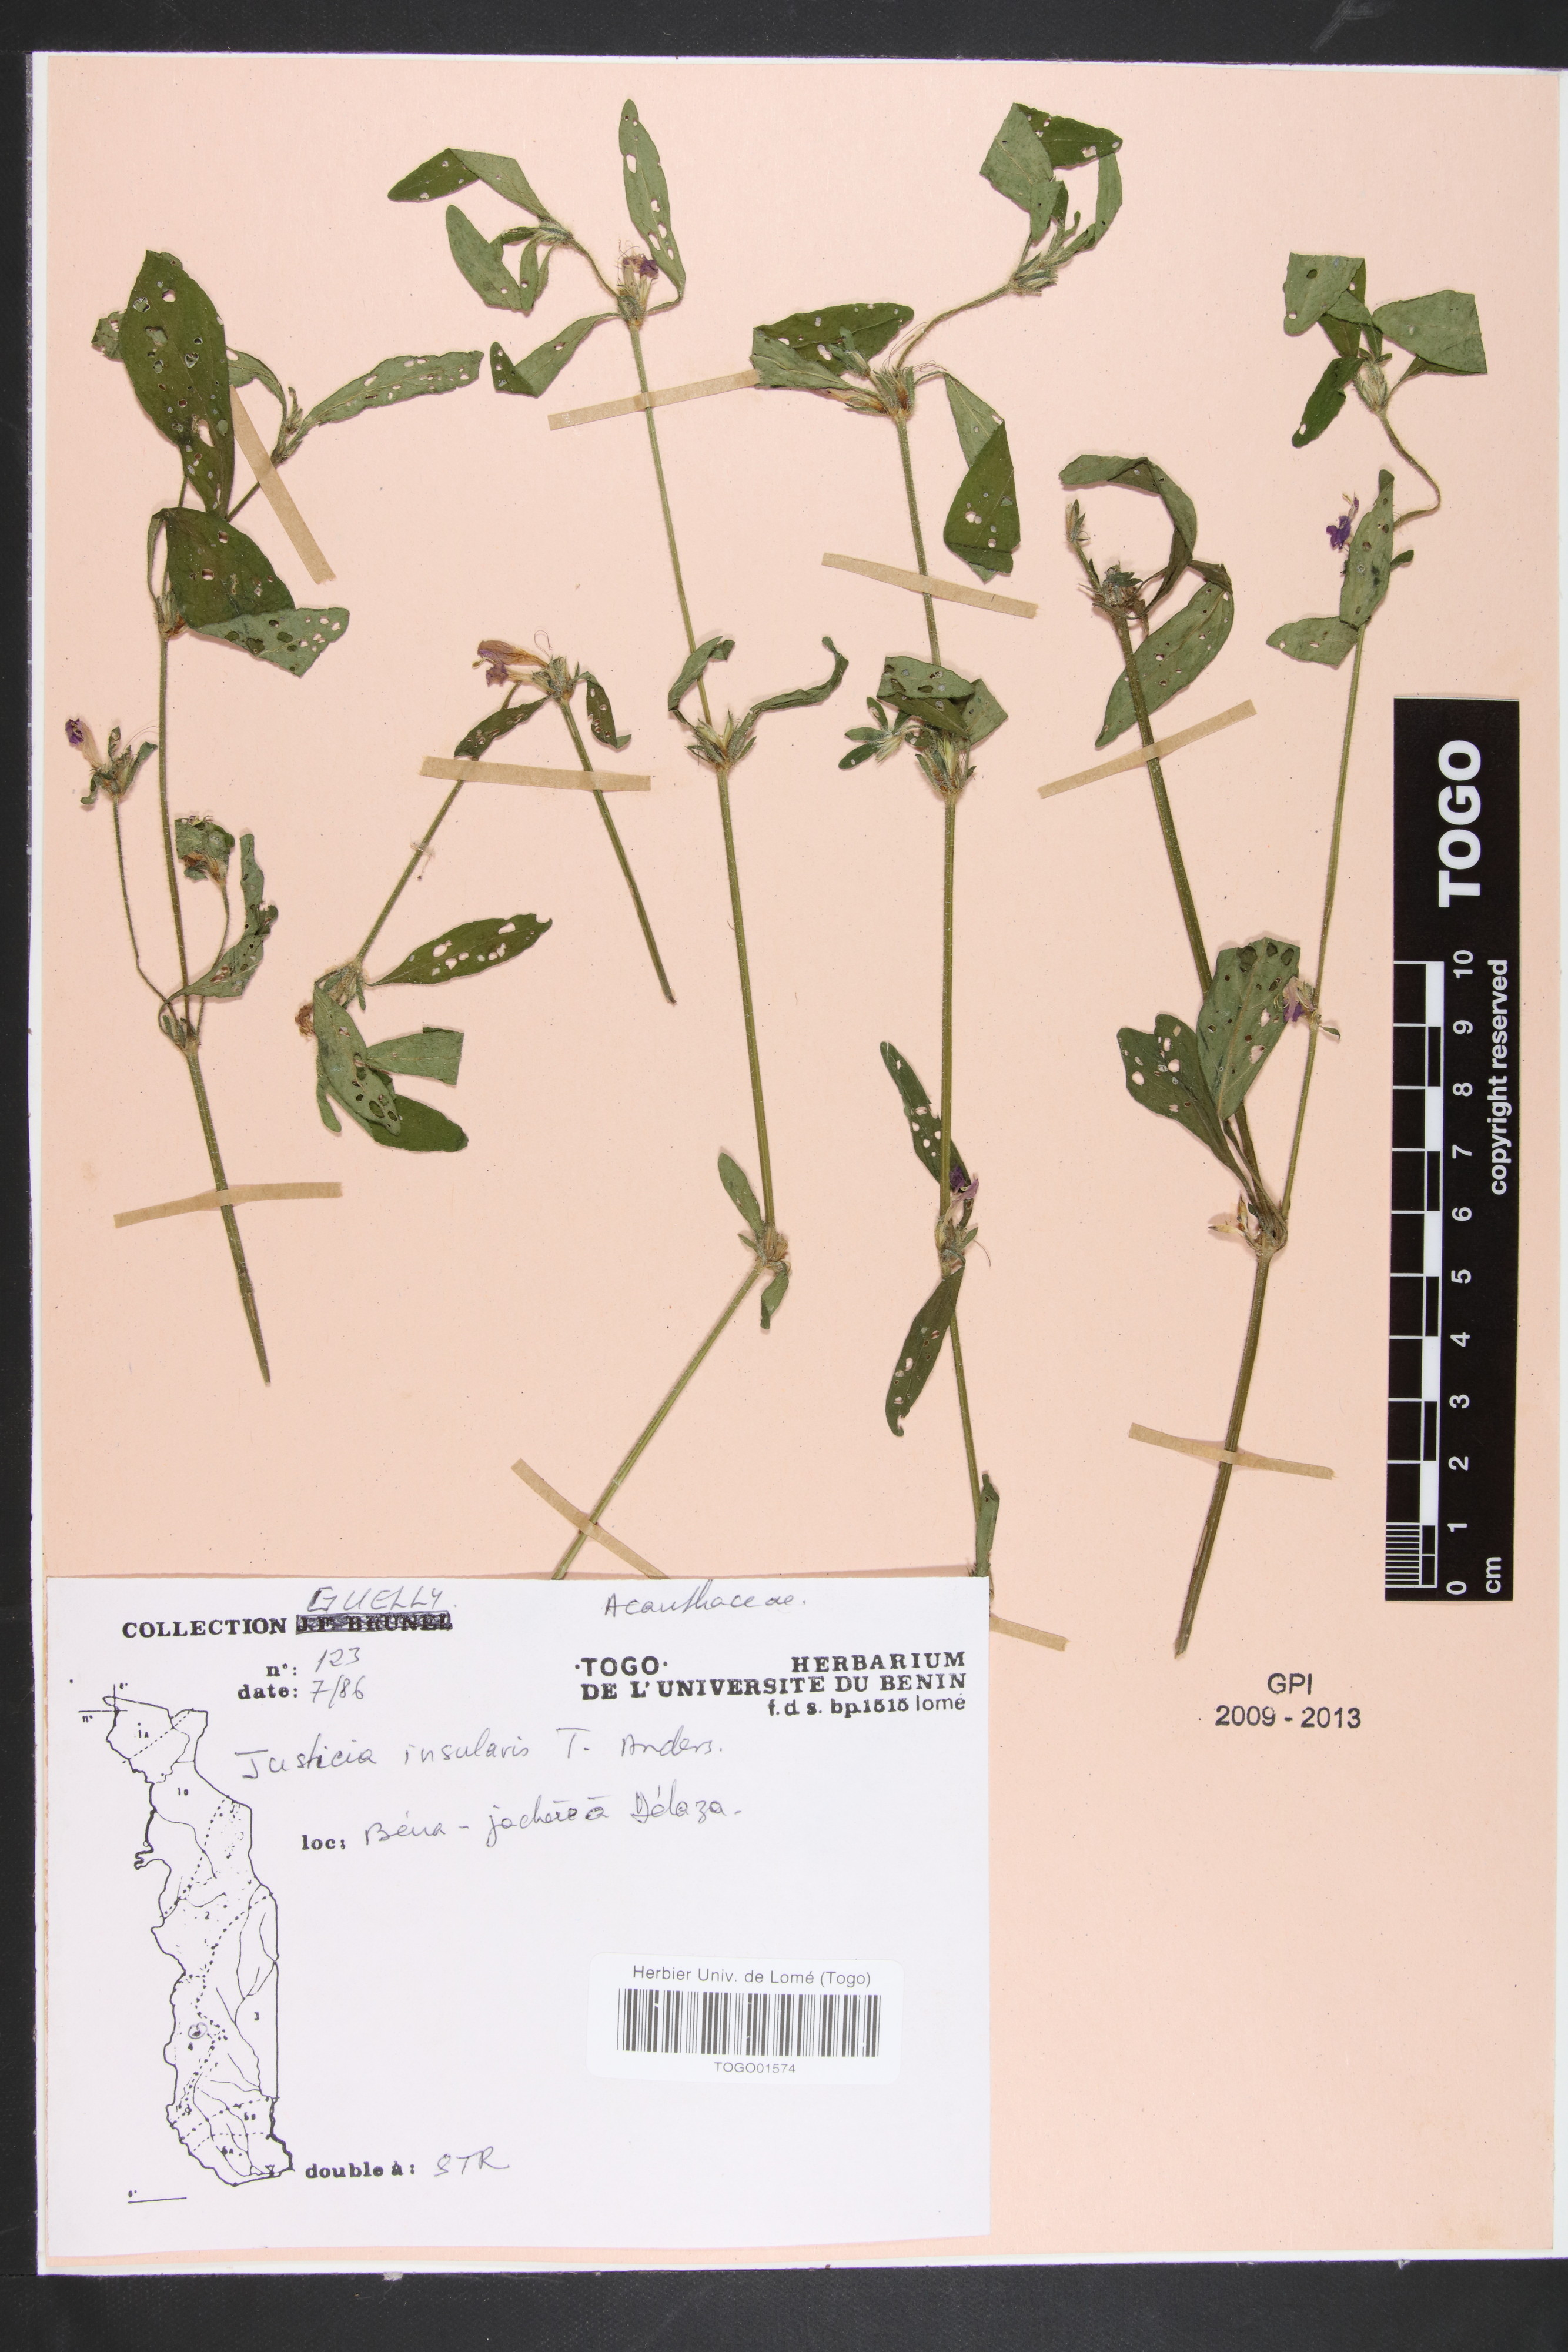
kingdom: Plantae
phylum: Tracheophyta
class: Magnoliopsida
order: Lamiales
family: Acanthaceae
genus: Justicia
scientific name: Justicia insularis
